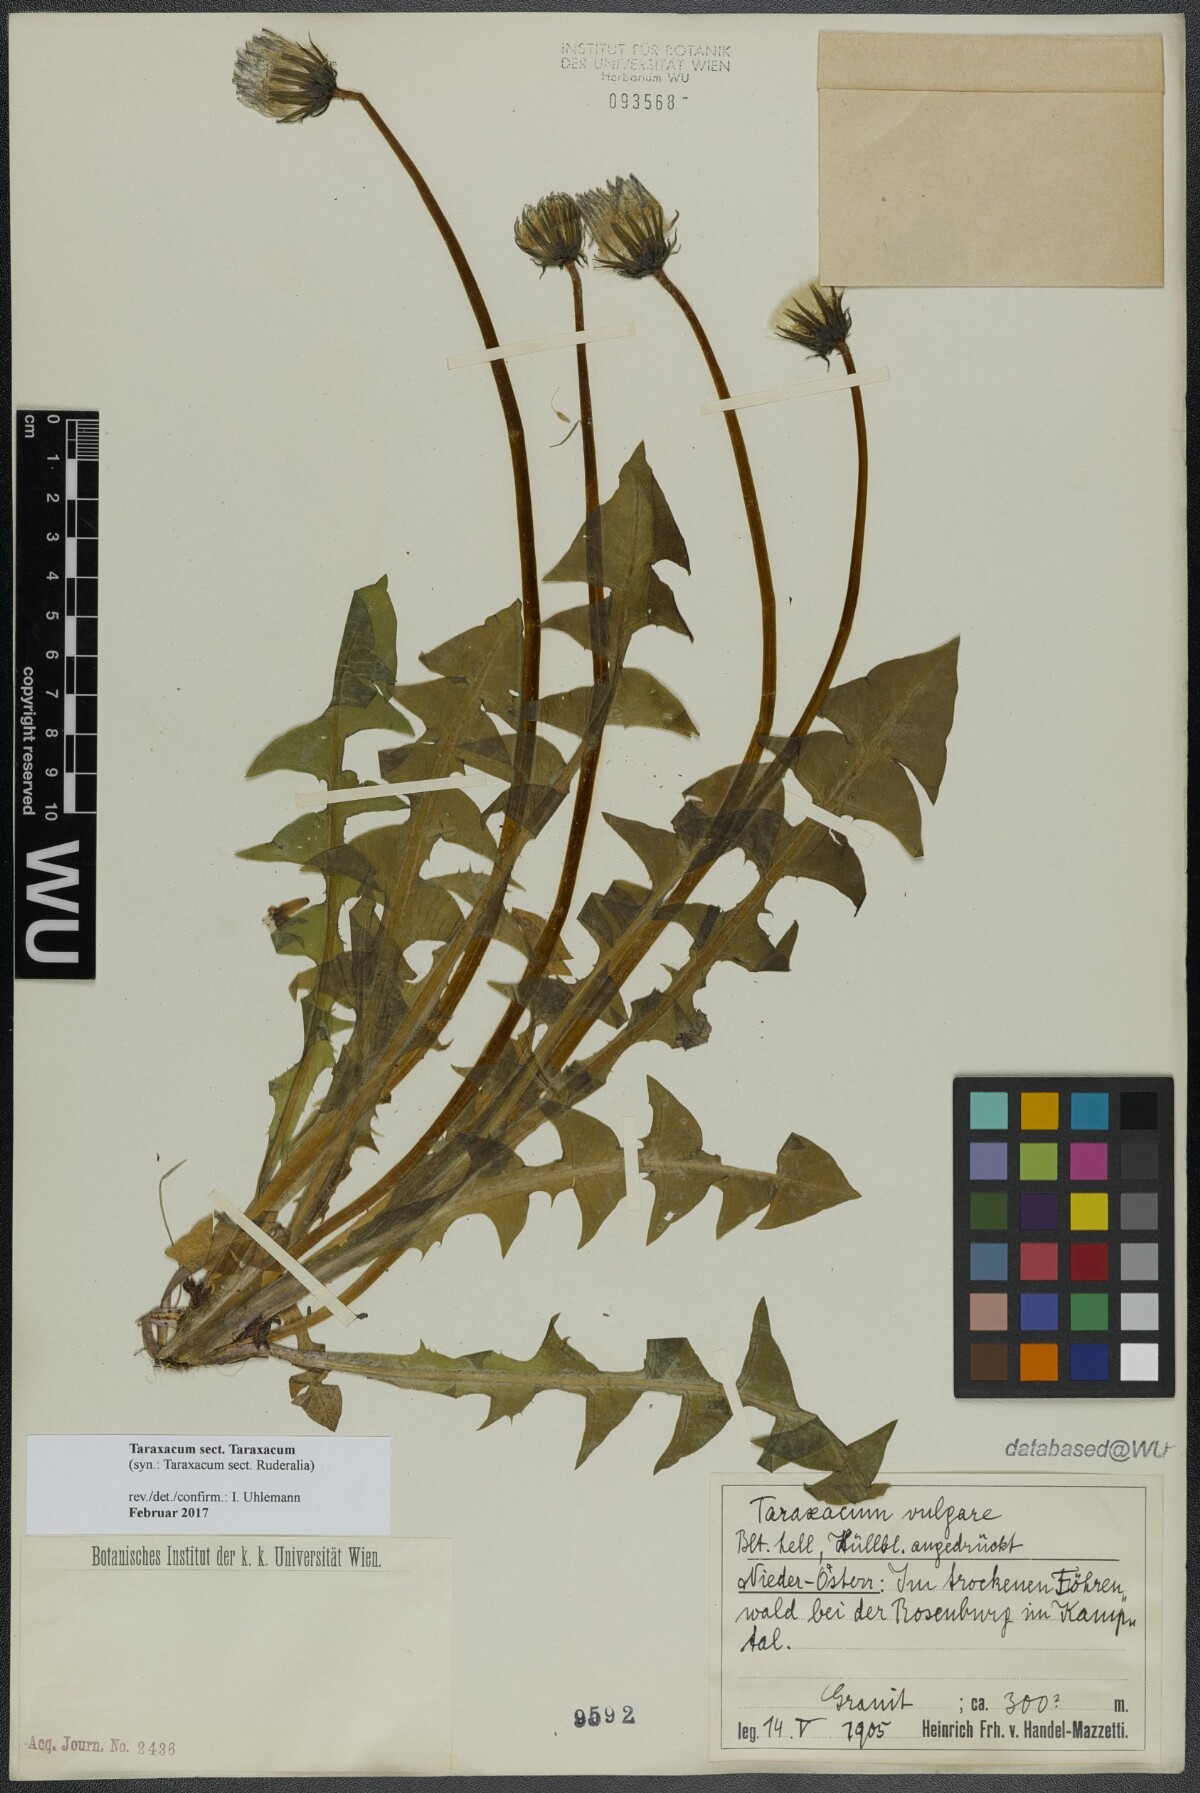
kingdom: Plantae
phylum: Tracheophyta
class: Magnoliopsida
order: Asterales
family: Asteraceae
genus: Taraxacum
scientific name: Taraxacum
